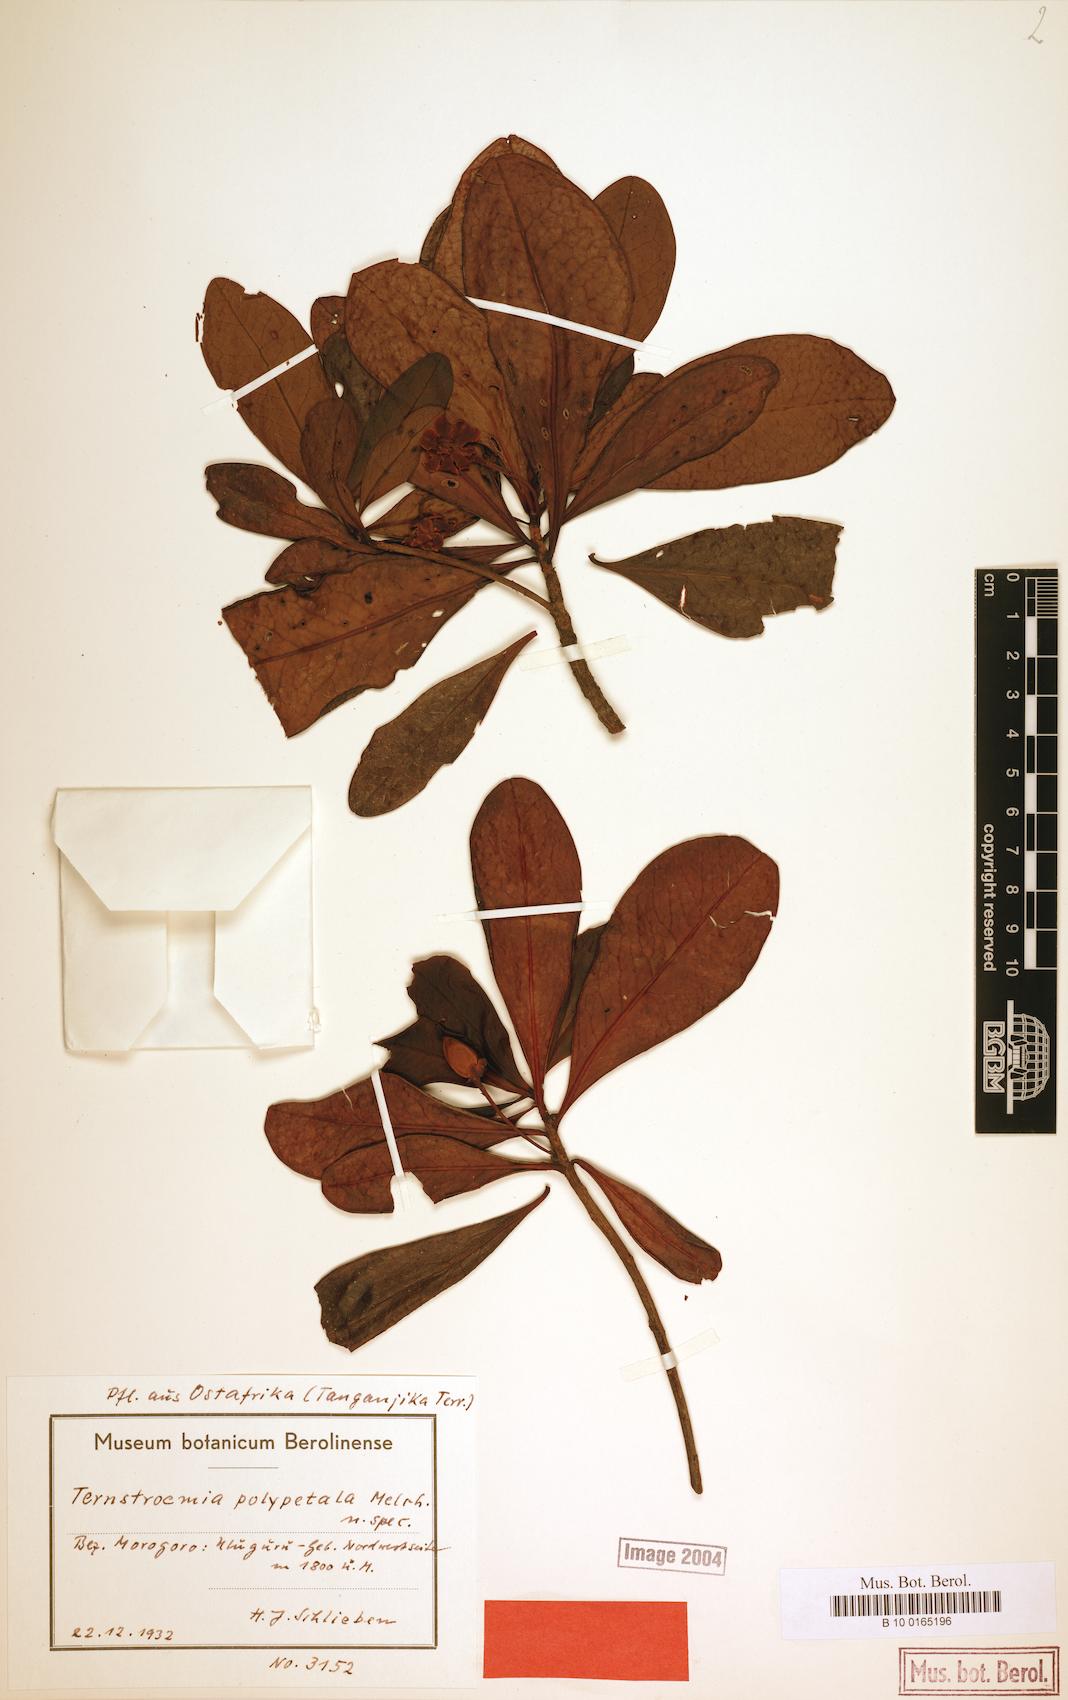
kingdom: Plantae
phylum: Tracheophyta
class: Magnoliopsida
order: Ericales
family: Pentaphylacaceae
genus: Ternstroemia
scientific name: Ternstroemia polypetala
